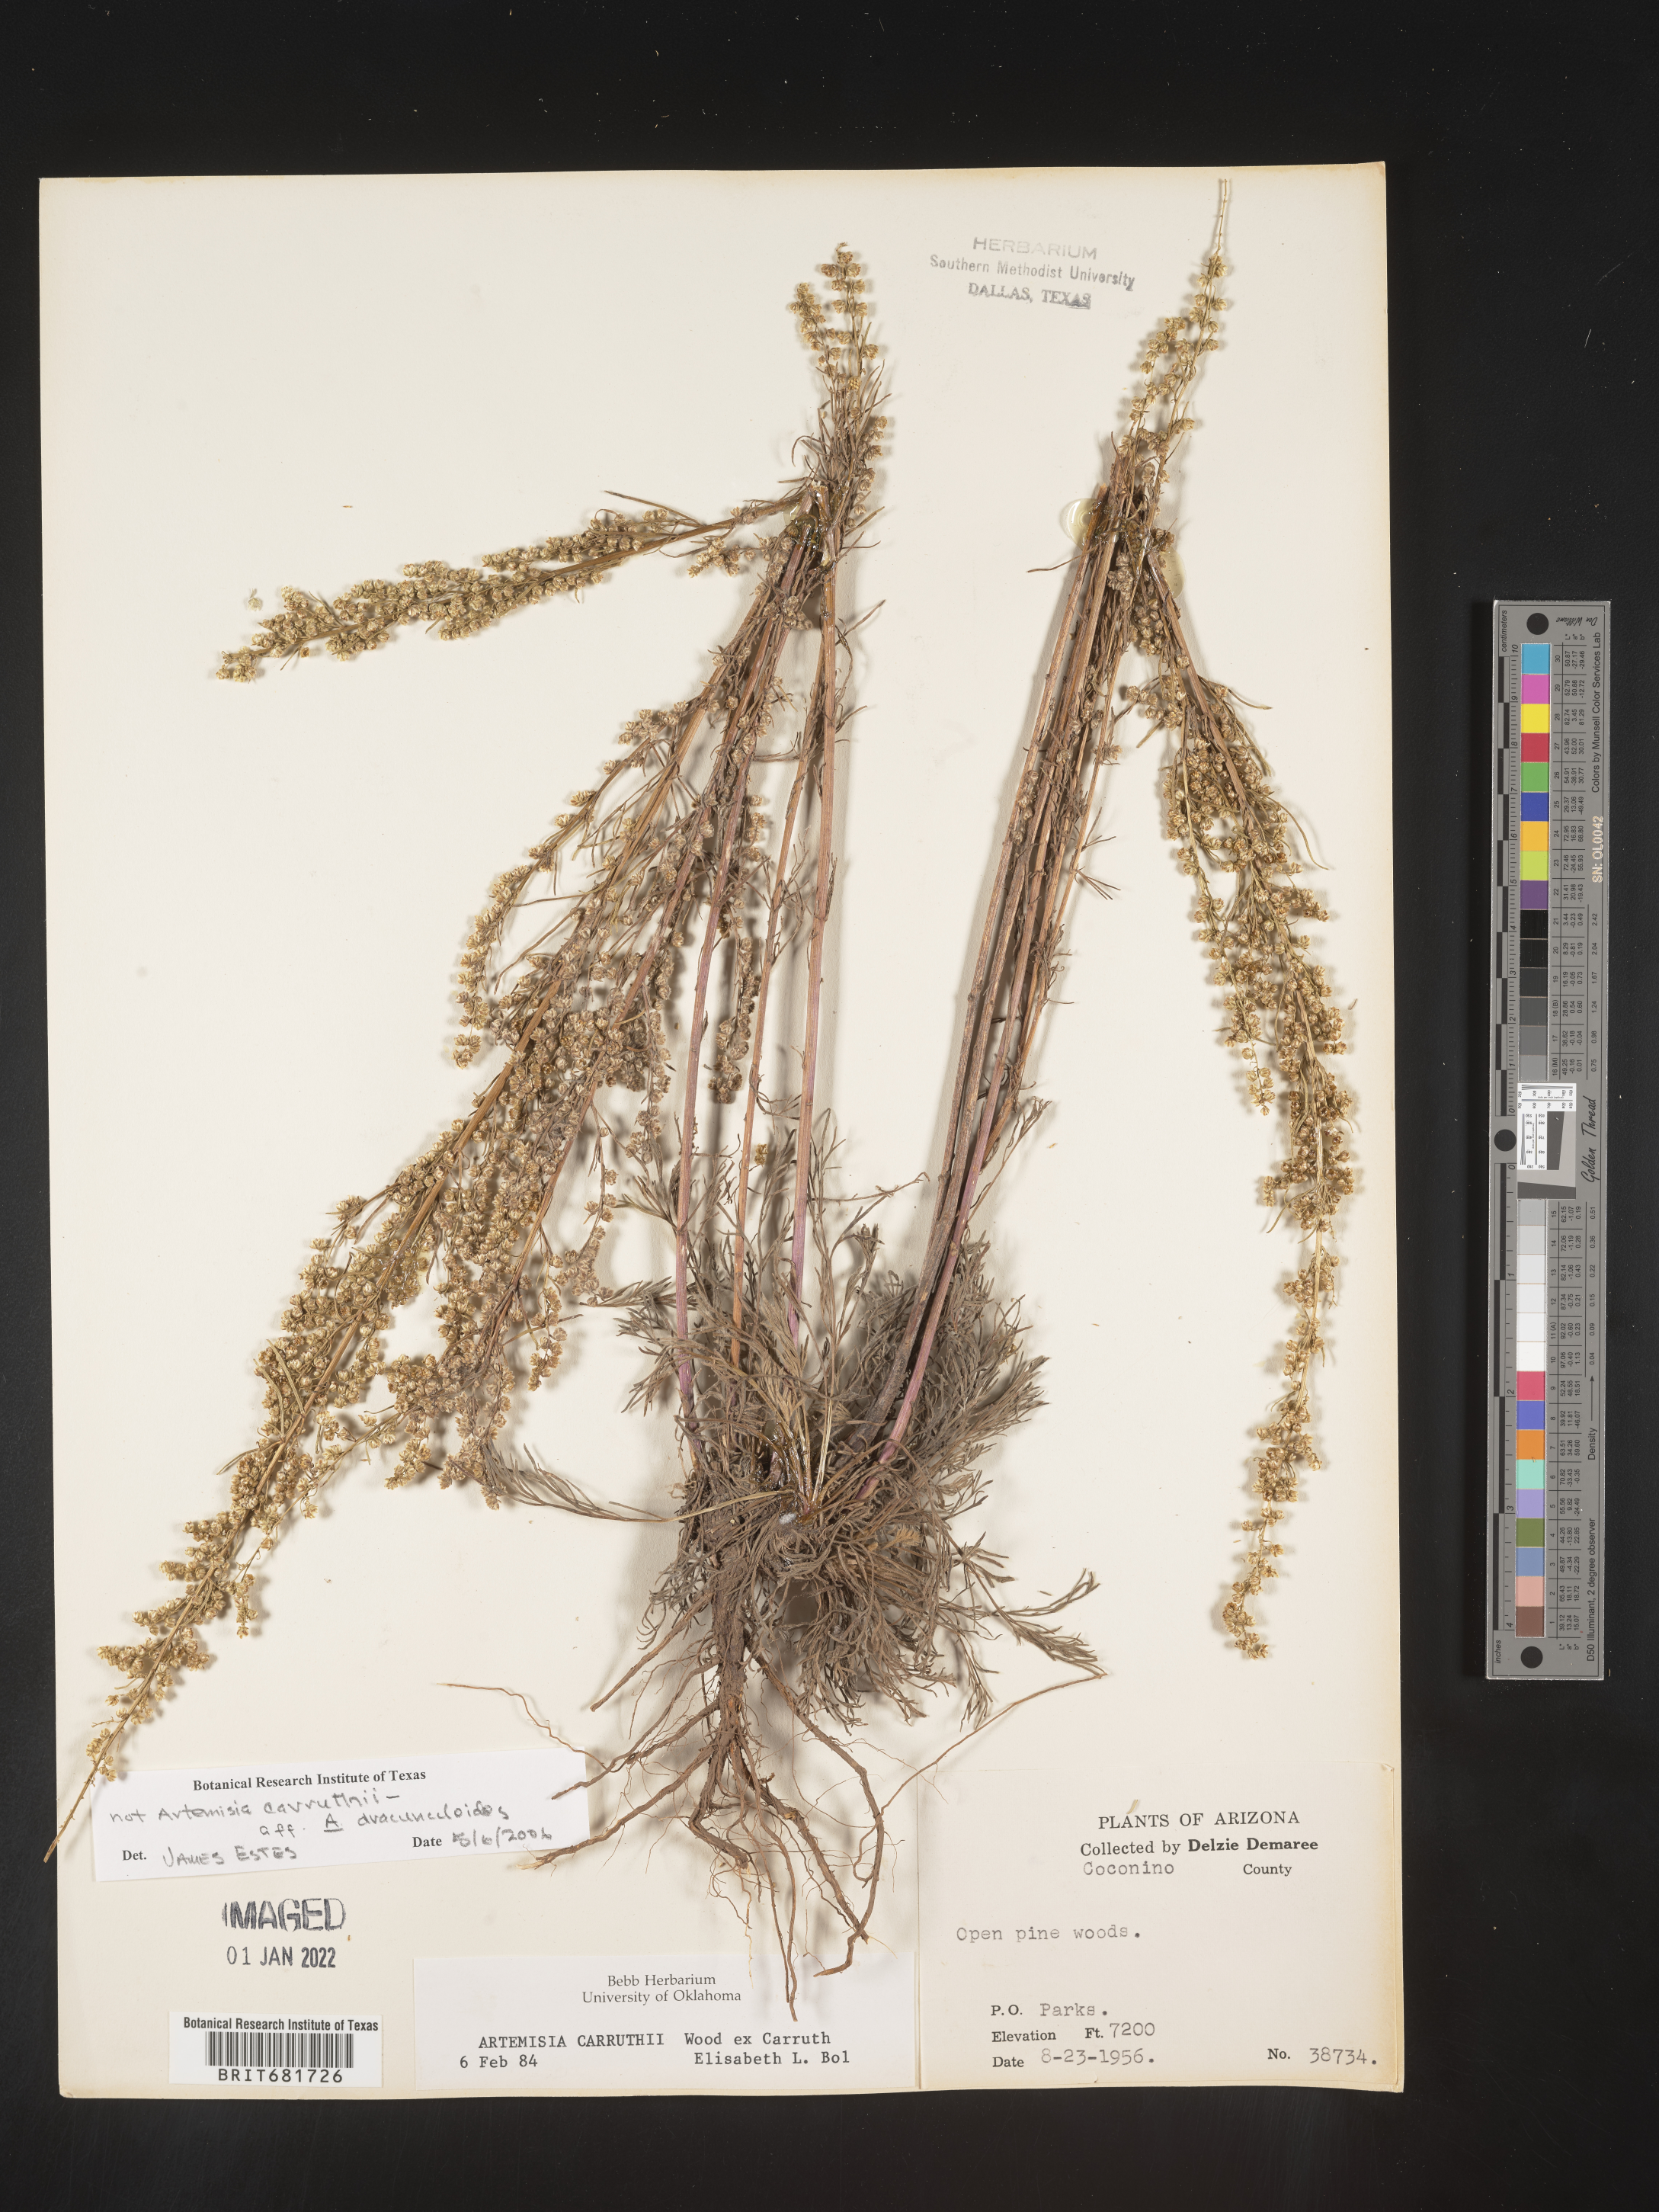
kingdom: Plantae
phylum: Tracheophyta
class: Magnoliopsida
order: Asterales
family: Asteraceae
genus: Artemisia
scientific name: Artemisia dracunculus
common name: Tarragon
